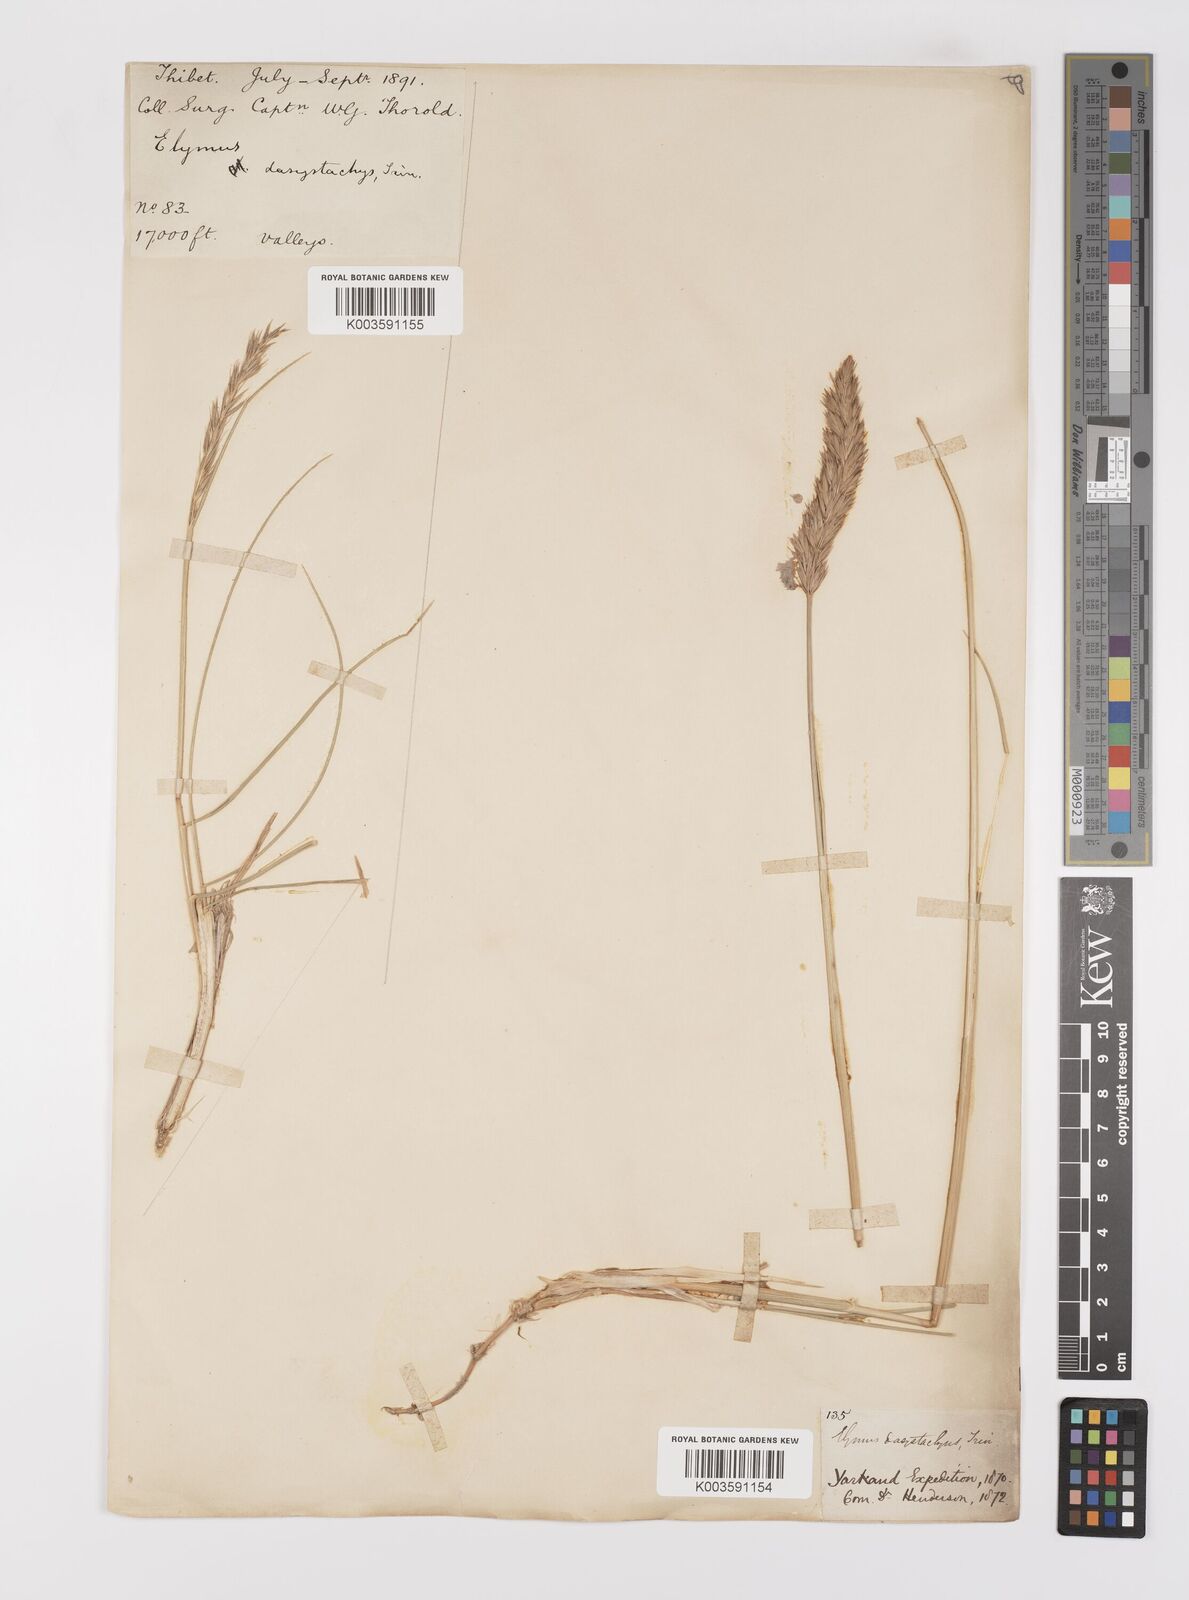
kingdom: Plantae
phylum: Tracheophyta
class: Liliopsida
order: Poales
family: Poaceae
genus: Leymus
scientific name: Leymus secalinus
